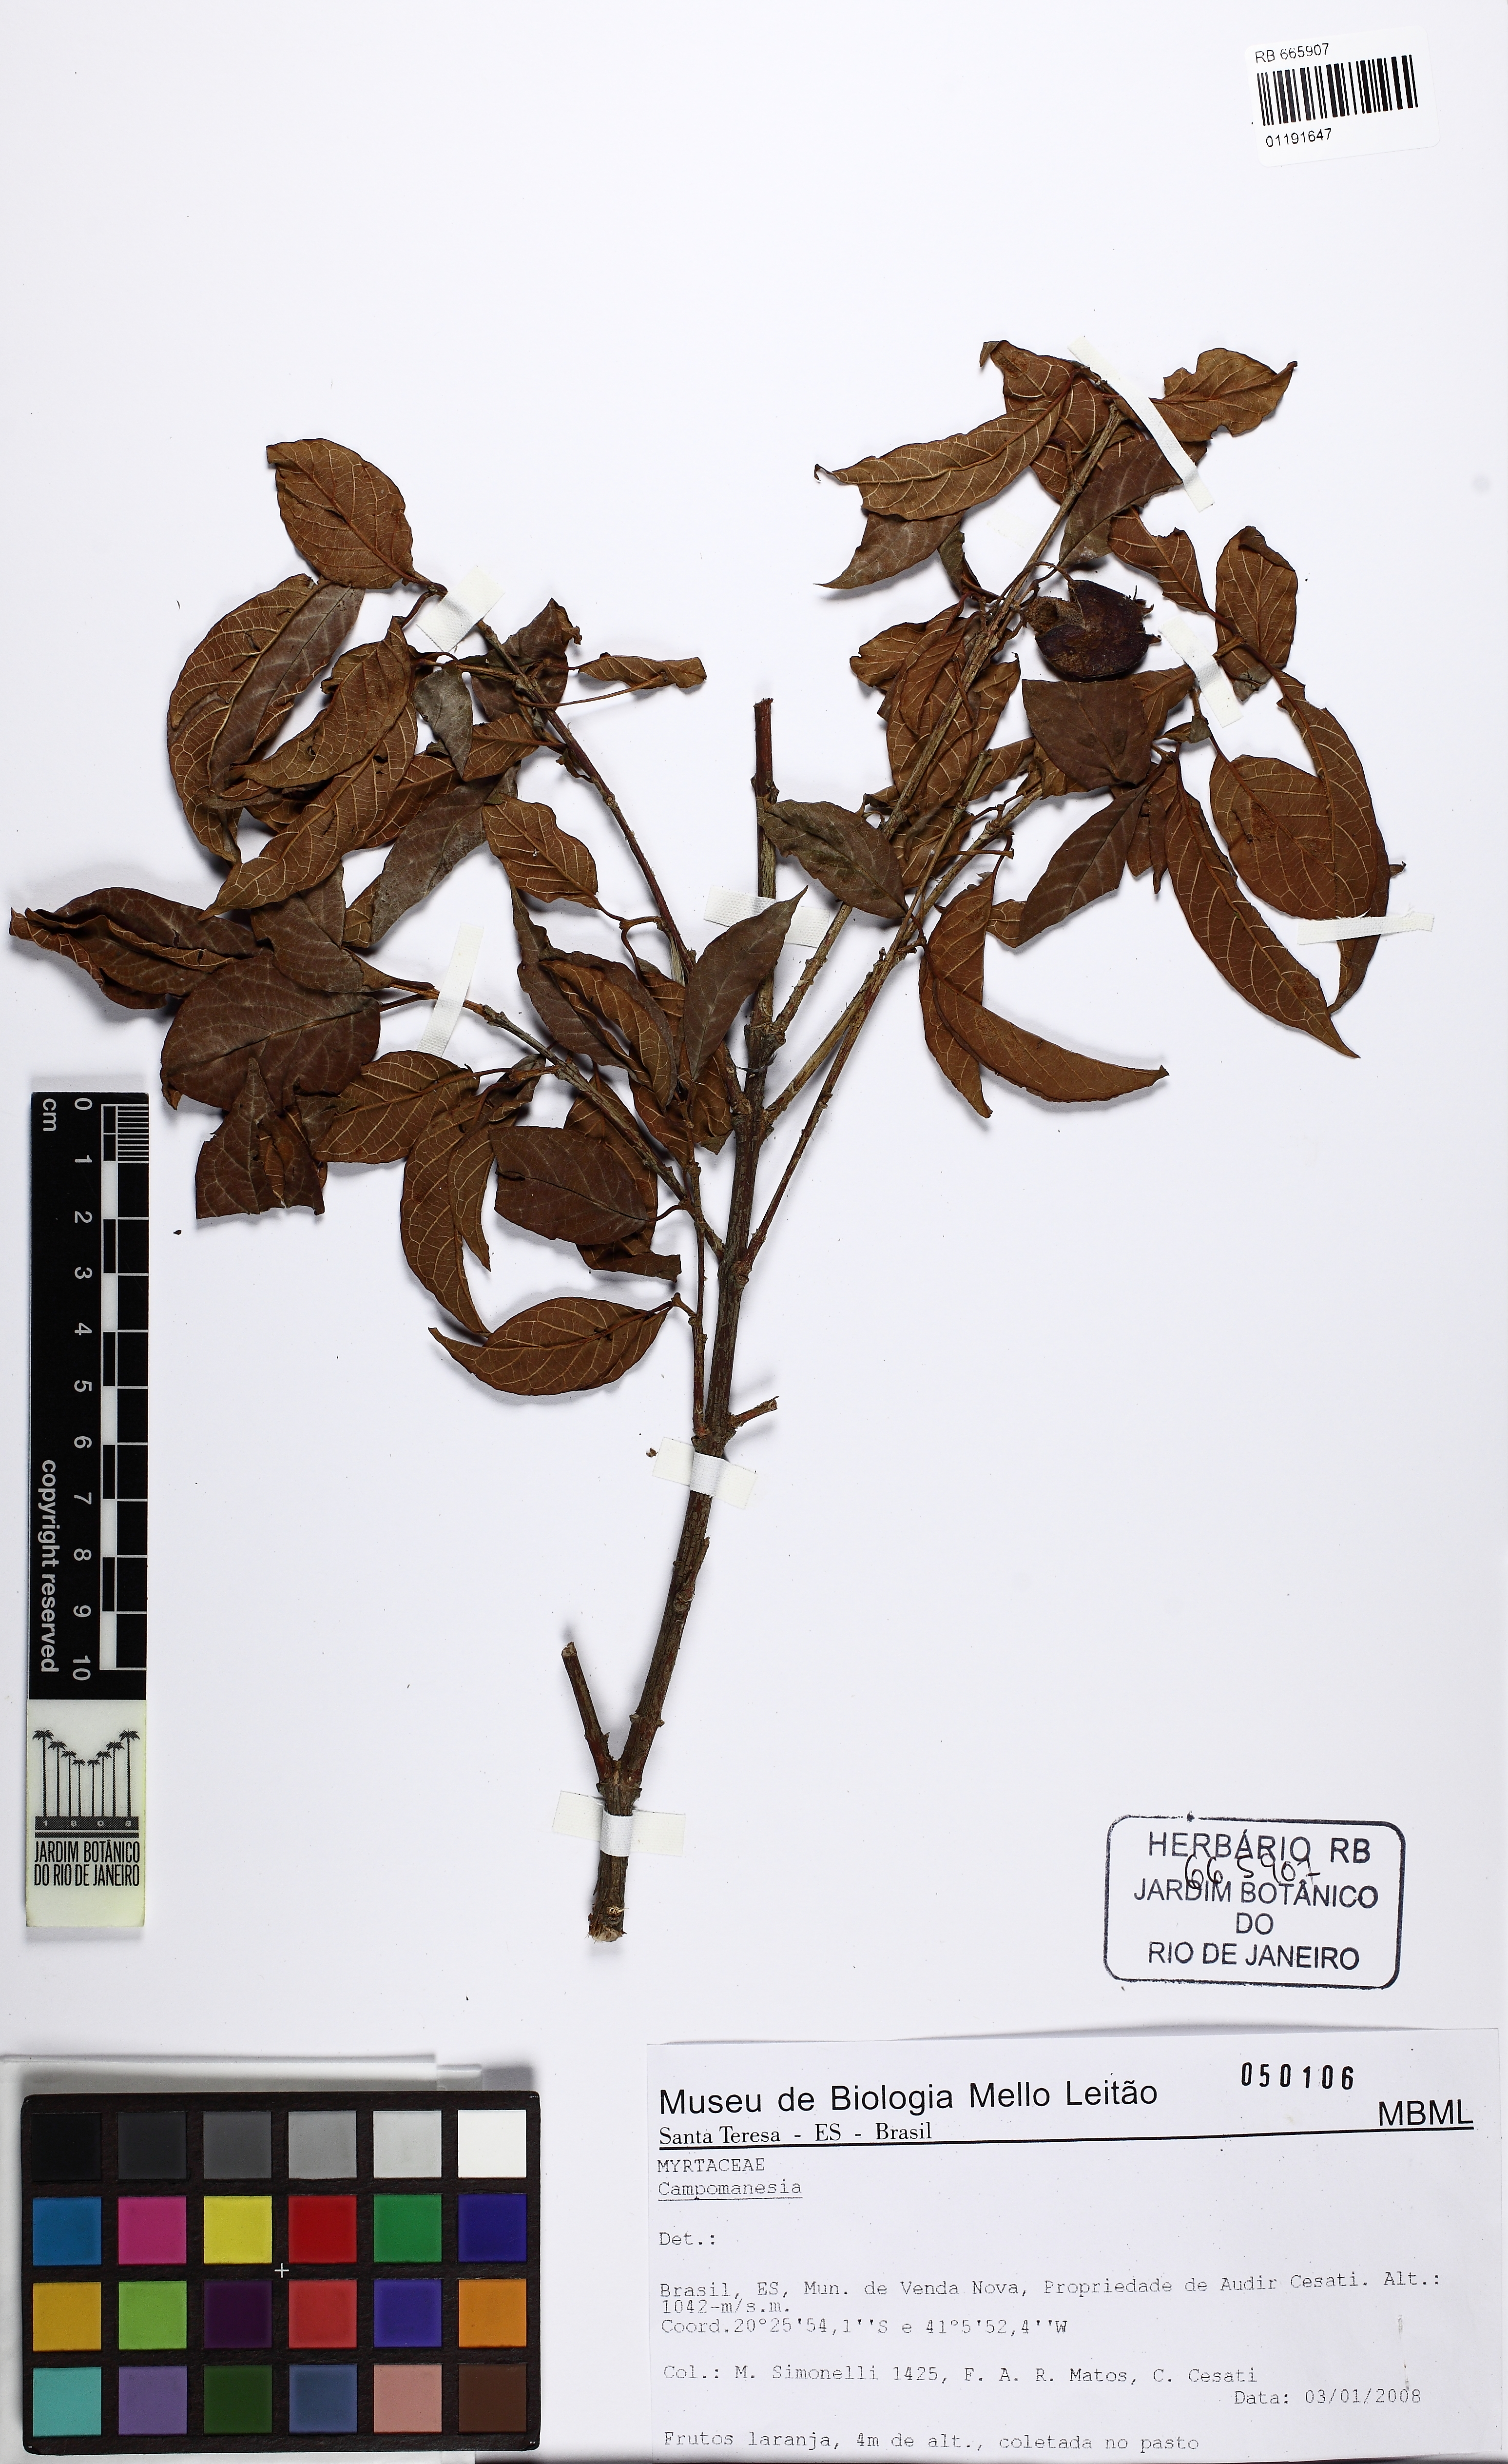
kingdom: Plantae
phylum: Tracheophyta
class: Magnoliopsida
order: Myrtales
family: Myrtaceae
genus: Campomanesia
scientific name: Campomanesia xanthocarpa
